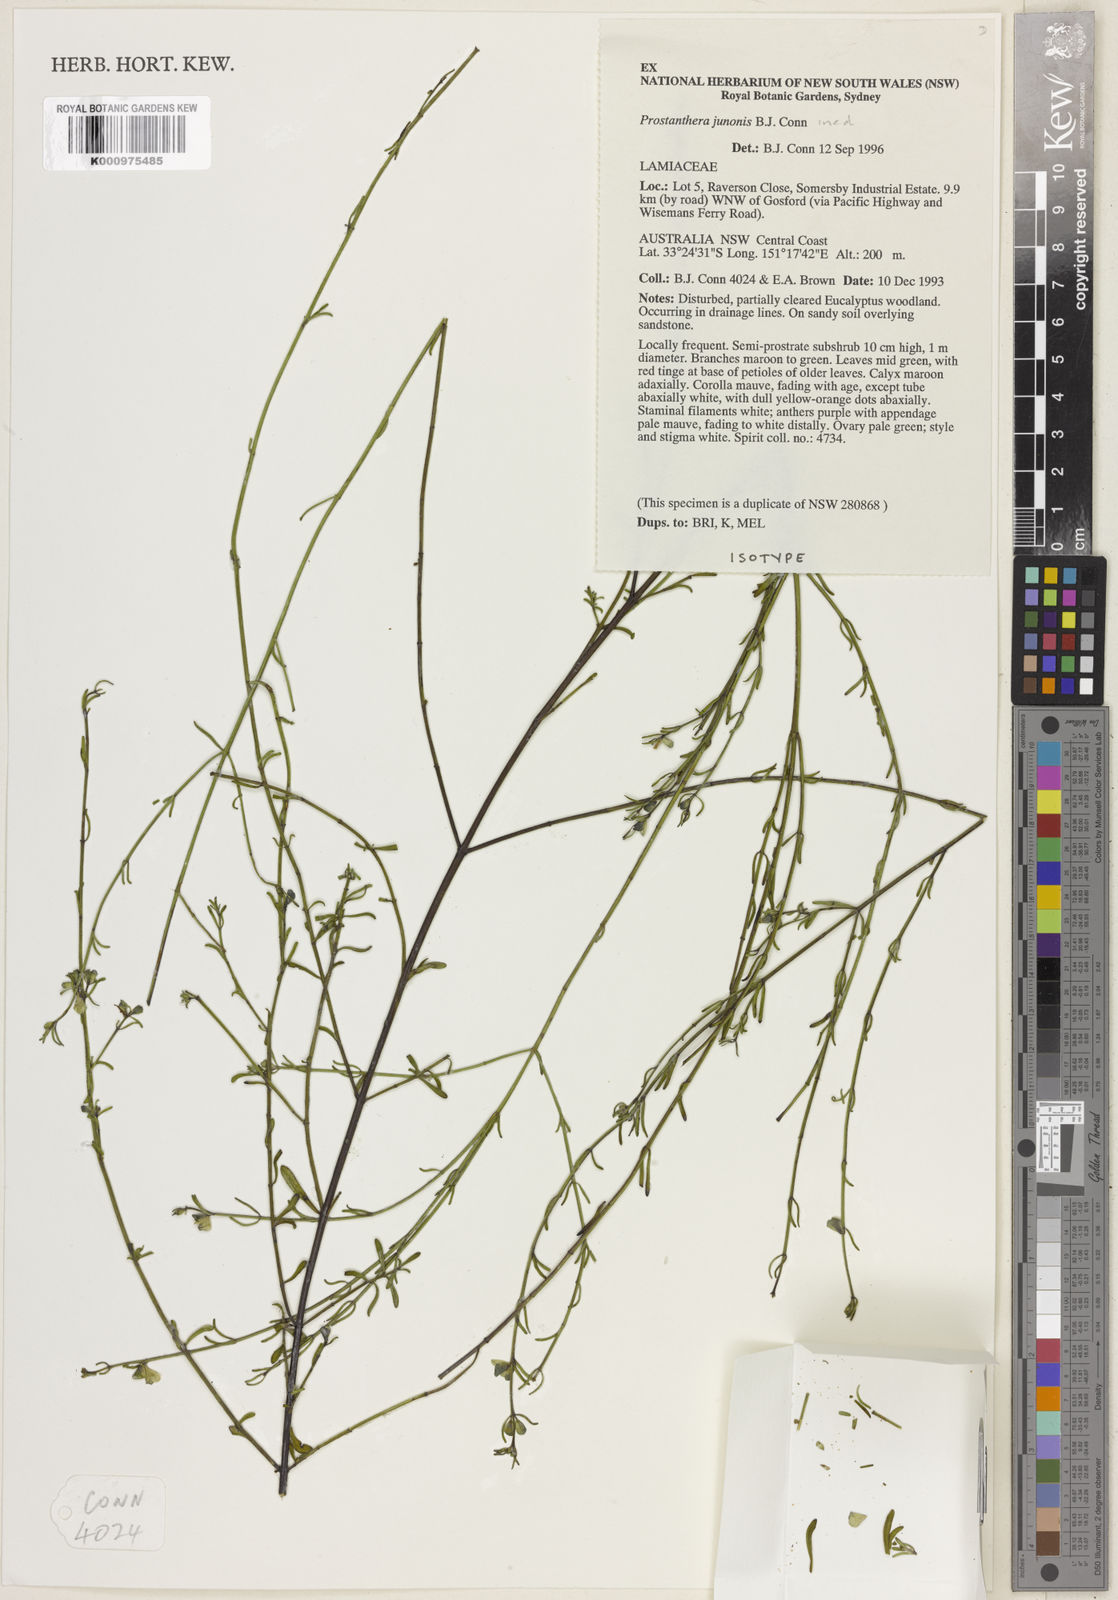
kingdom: Plantae
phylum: Tracheophyta
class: Magnoliopsida
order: Lamiales
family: Lamiaceae
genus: Prostanthera
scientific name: Prostanthera junonis
